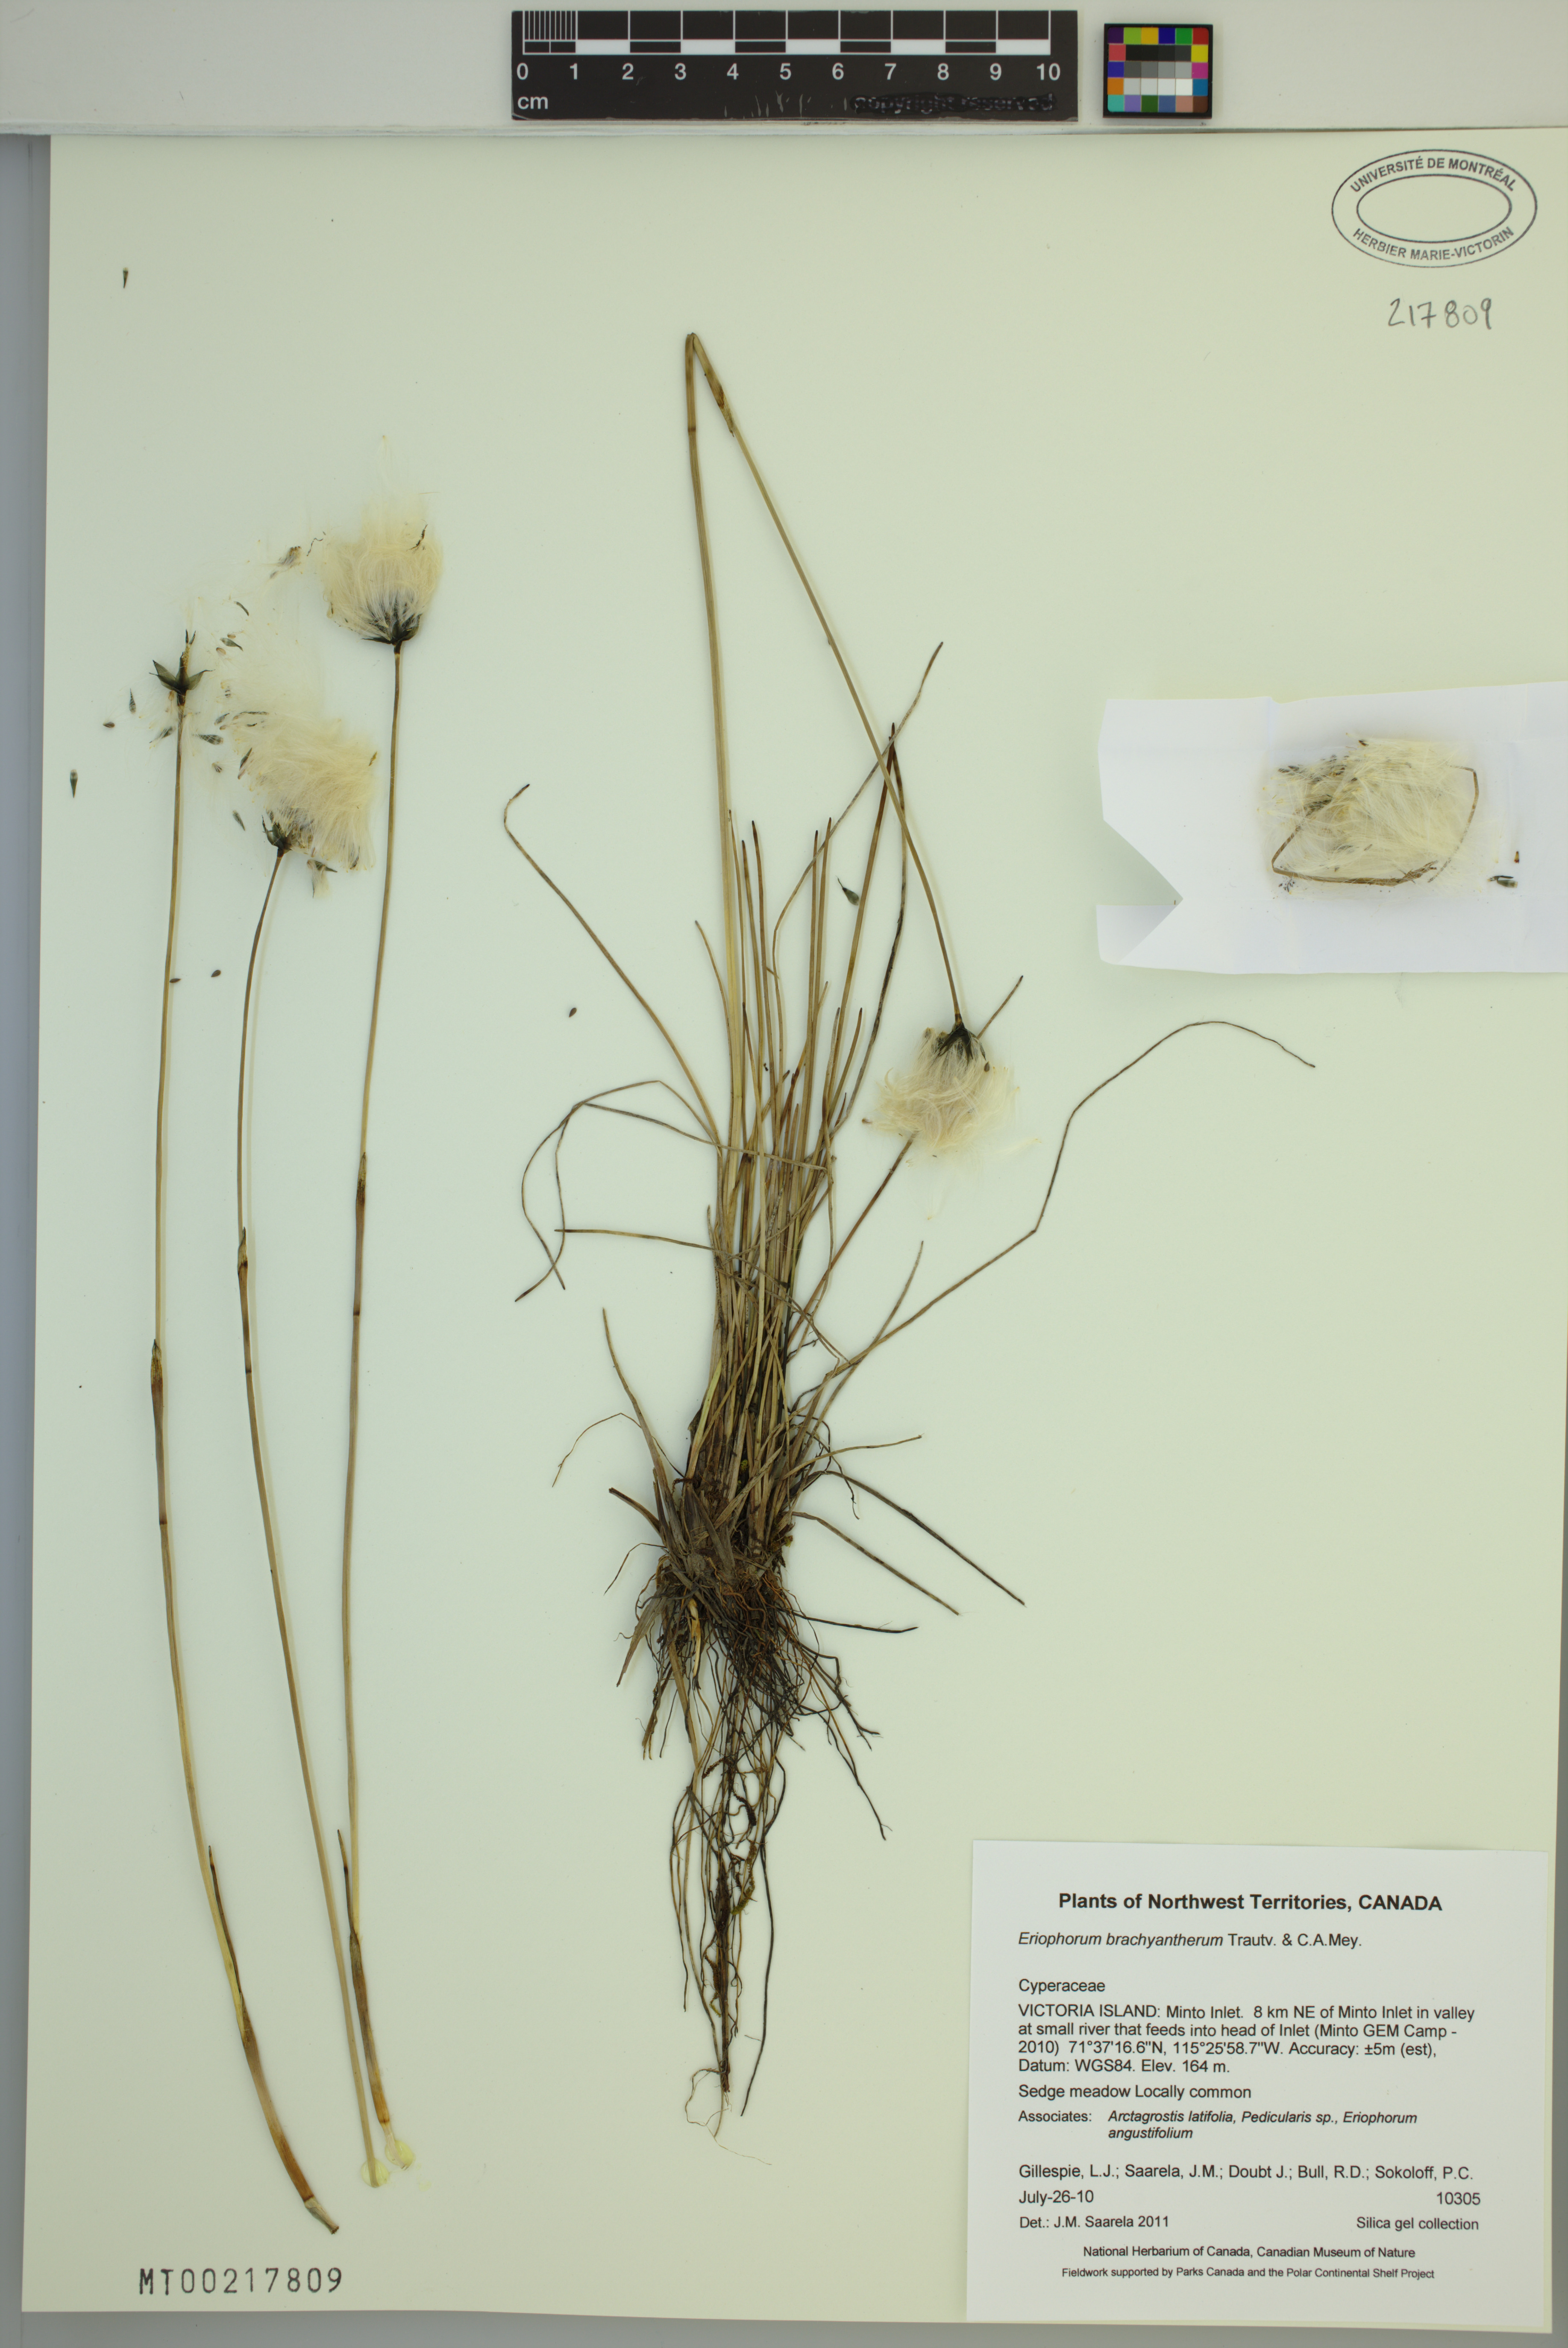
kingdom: Plantae
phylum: Tracheophyta
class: Liliopsida
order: Poales
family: Cyperaceae
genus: Eriophorum
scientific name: Eriophorum brachyantherum
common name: Closed-sheathed cottongrass
